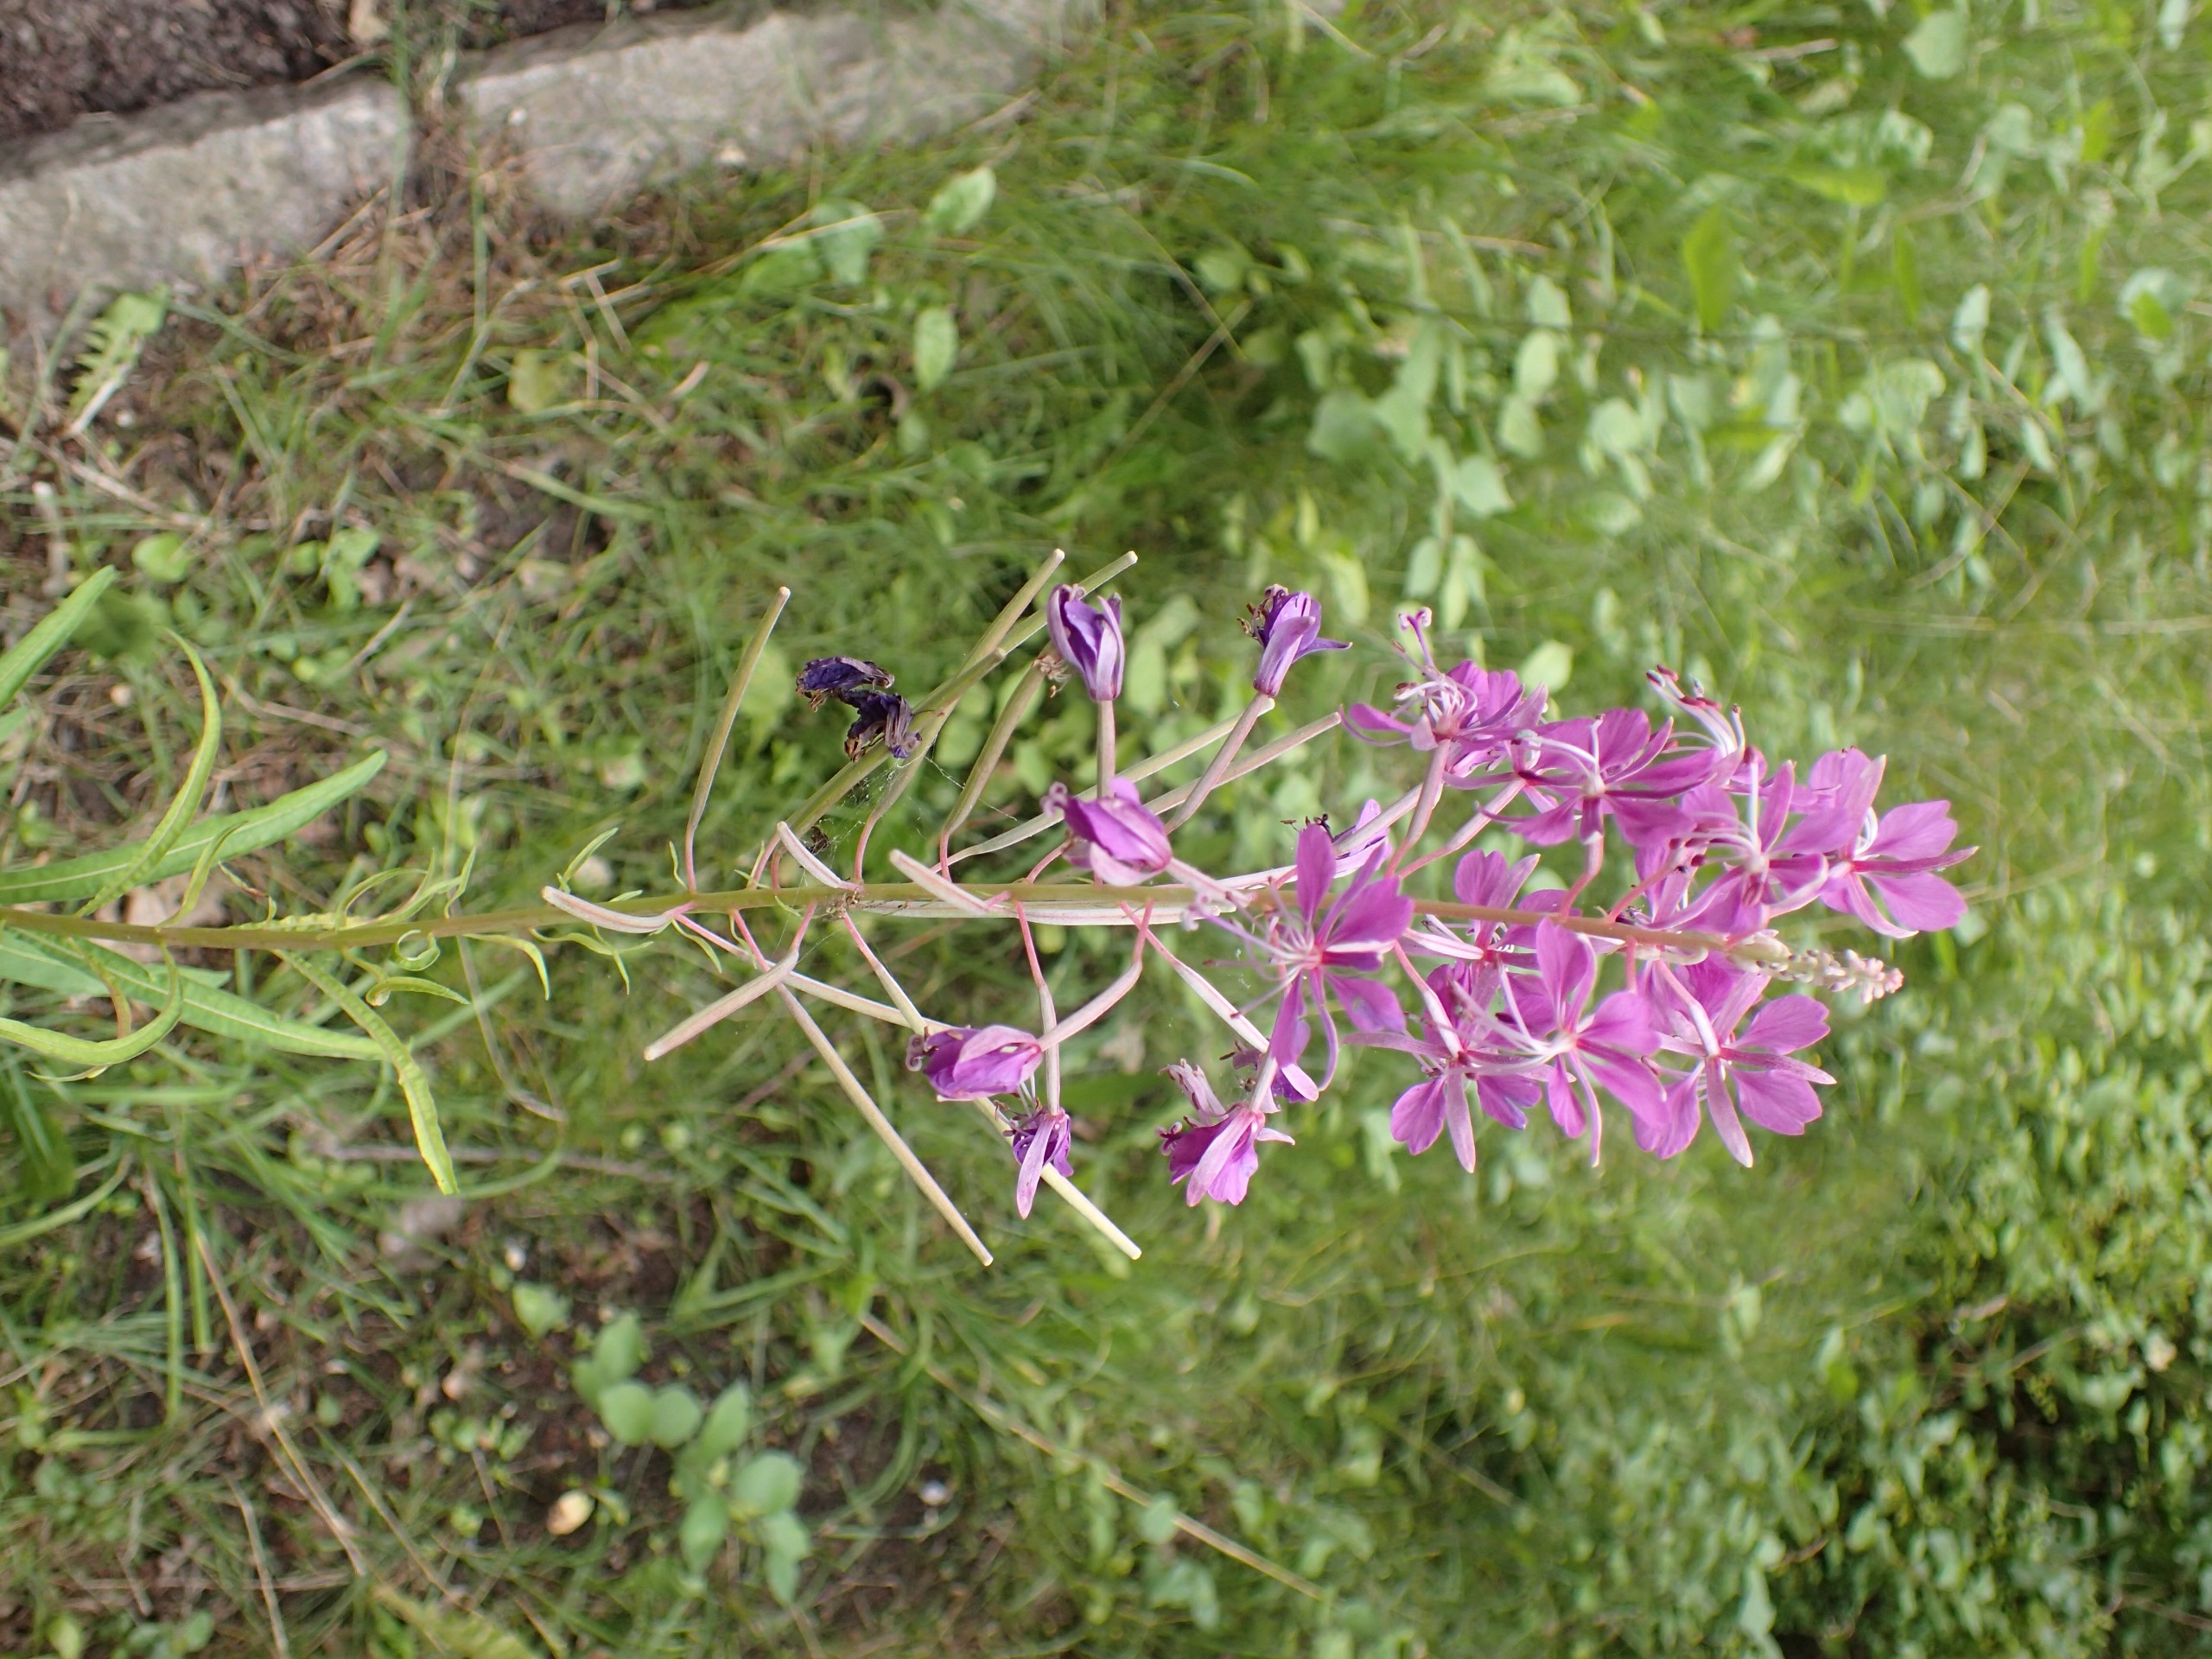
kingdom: Plantae
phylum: Tracheophyta
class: Magnoliopsida
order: Myrtales
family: Onagraceae
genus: Chamaenerion
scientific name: Chamaenerion angustifolium
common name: Gederams
